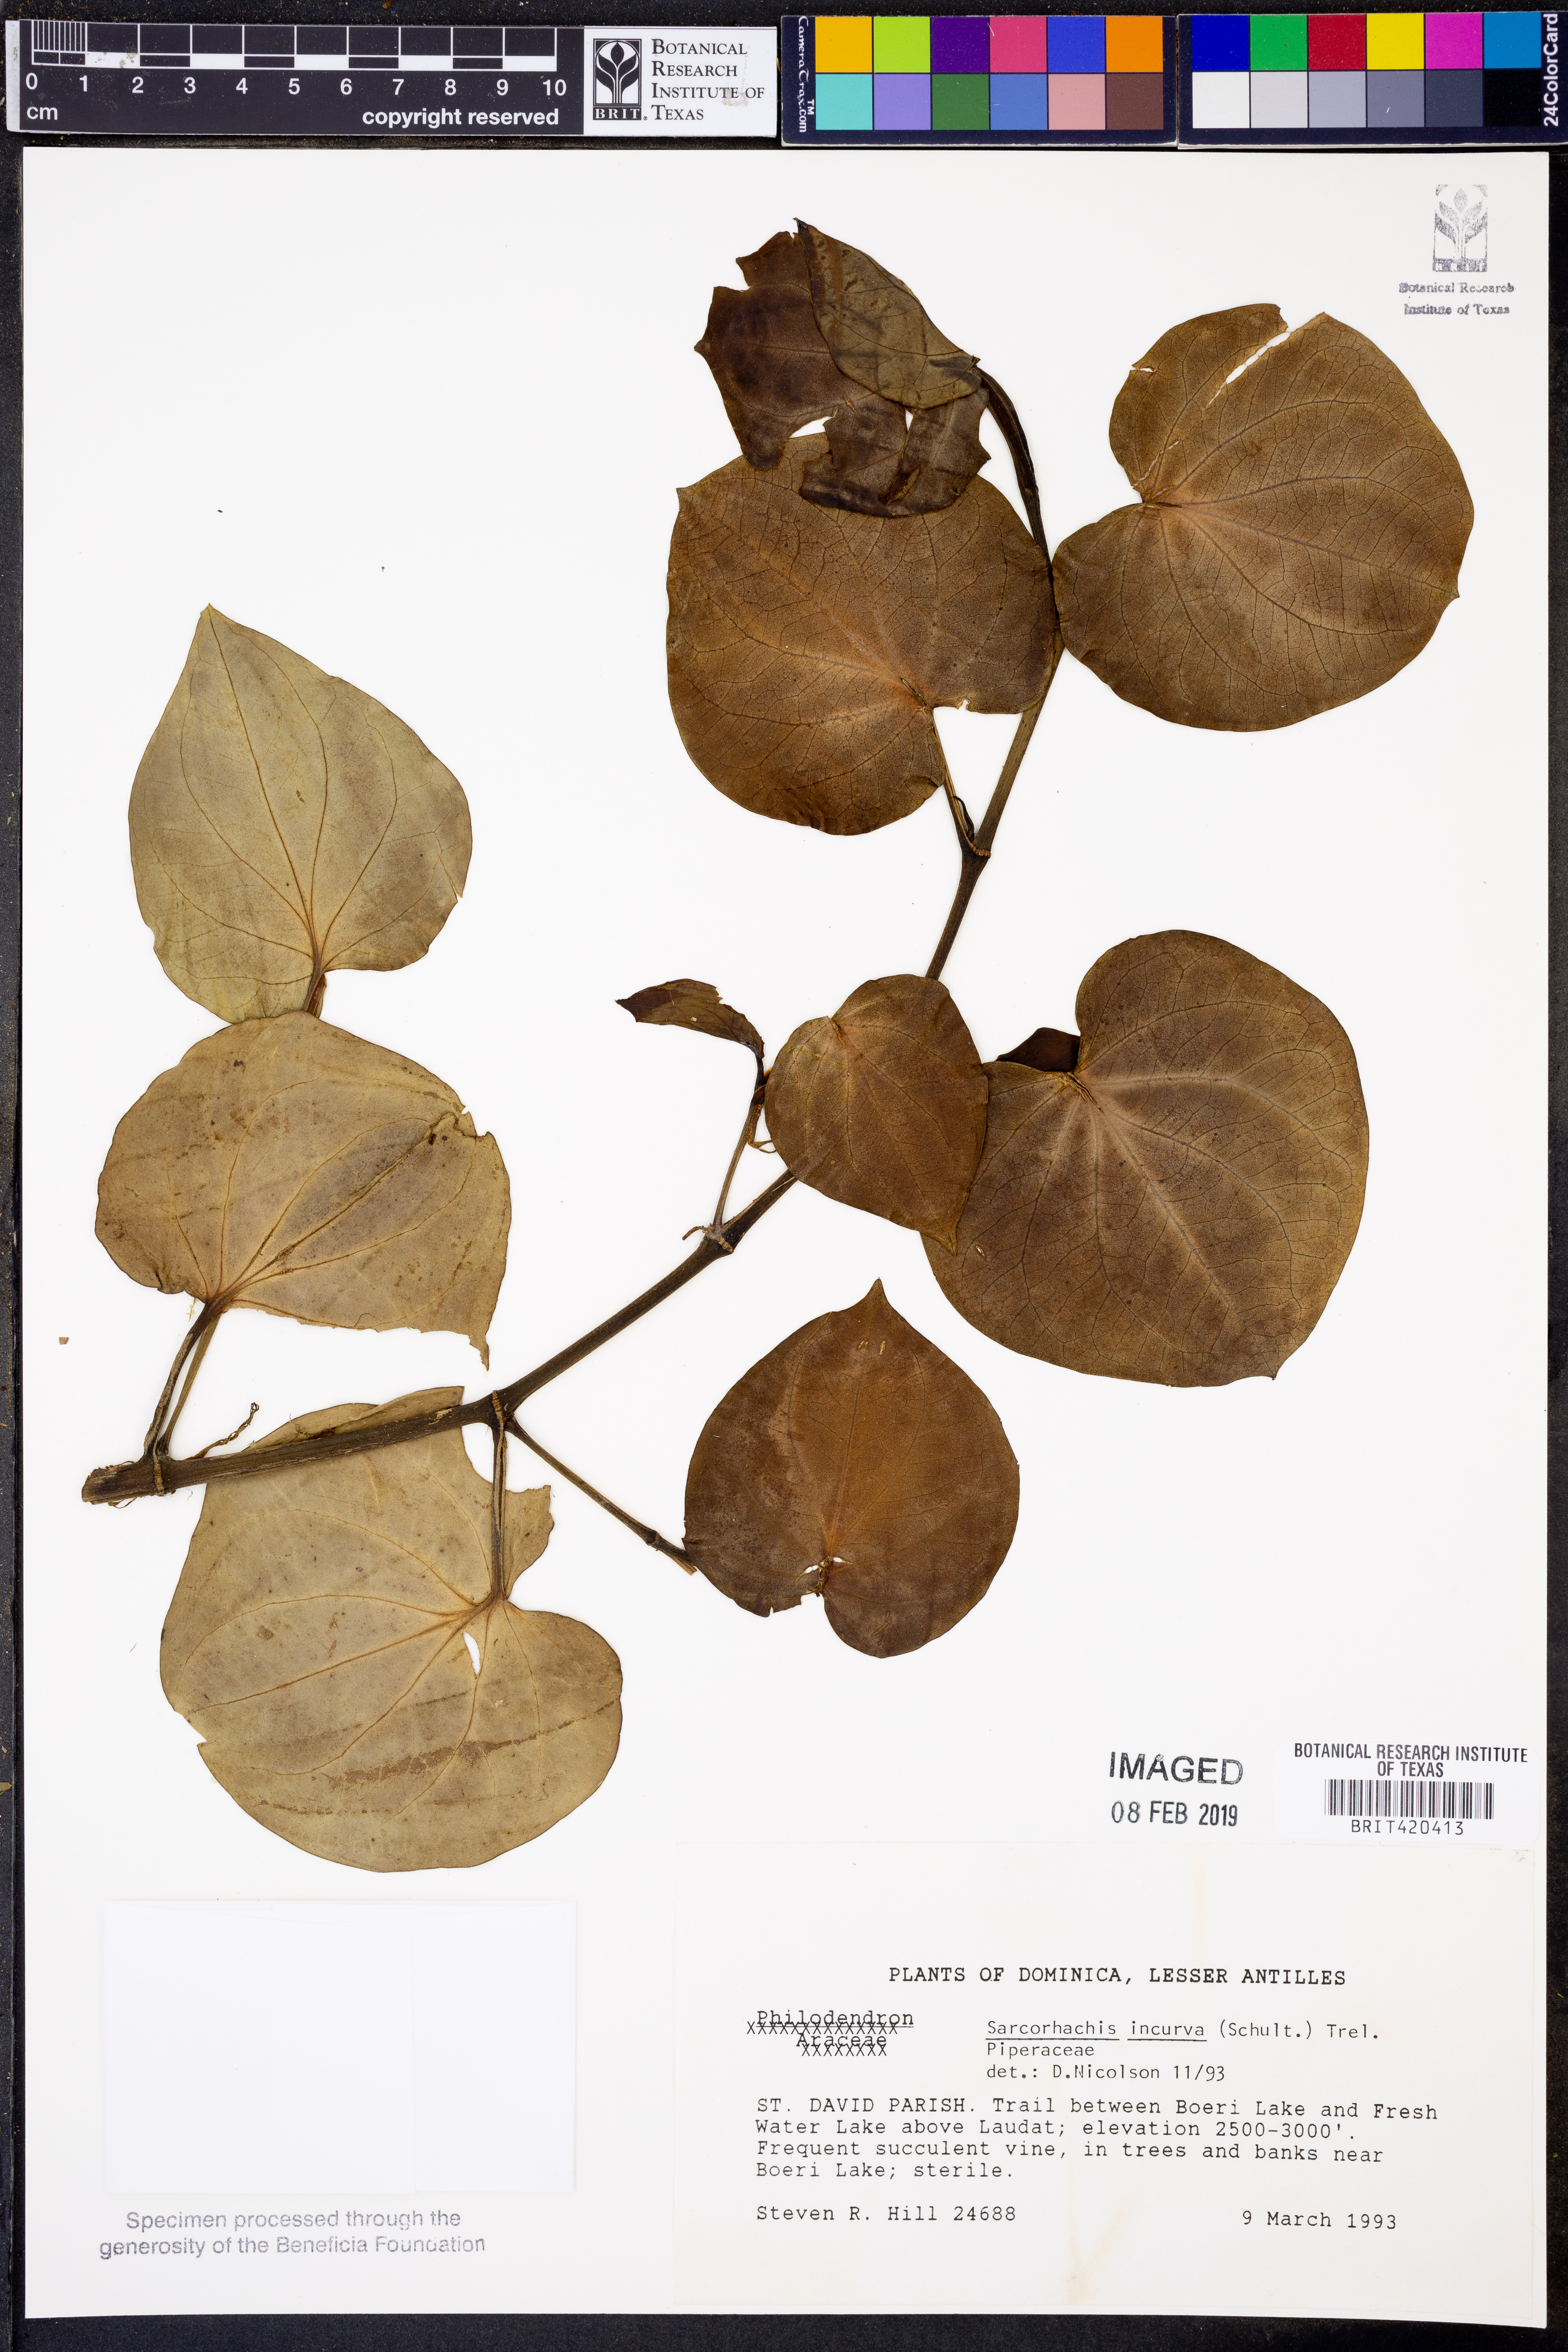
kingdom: Plantae
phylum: Tracheophyta
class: Magnoliopsida
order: Piperales
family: Piperaceae
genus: Manekia
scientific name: Manekia incurva
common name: Wild black-pepper
